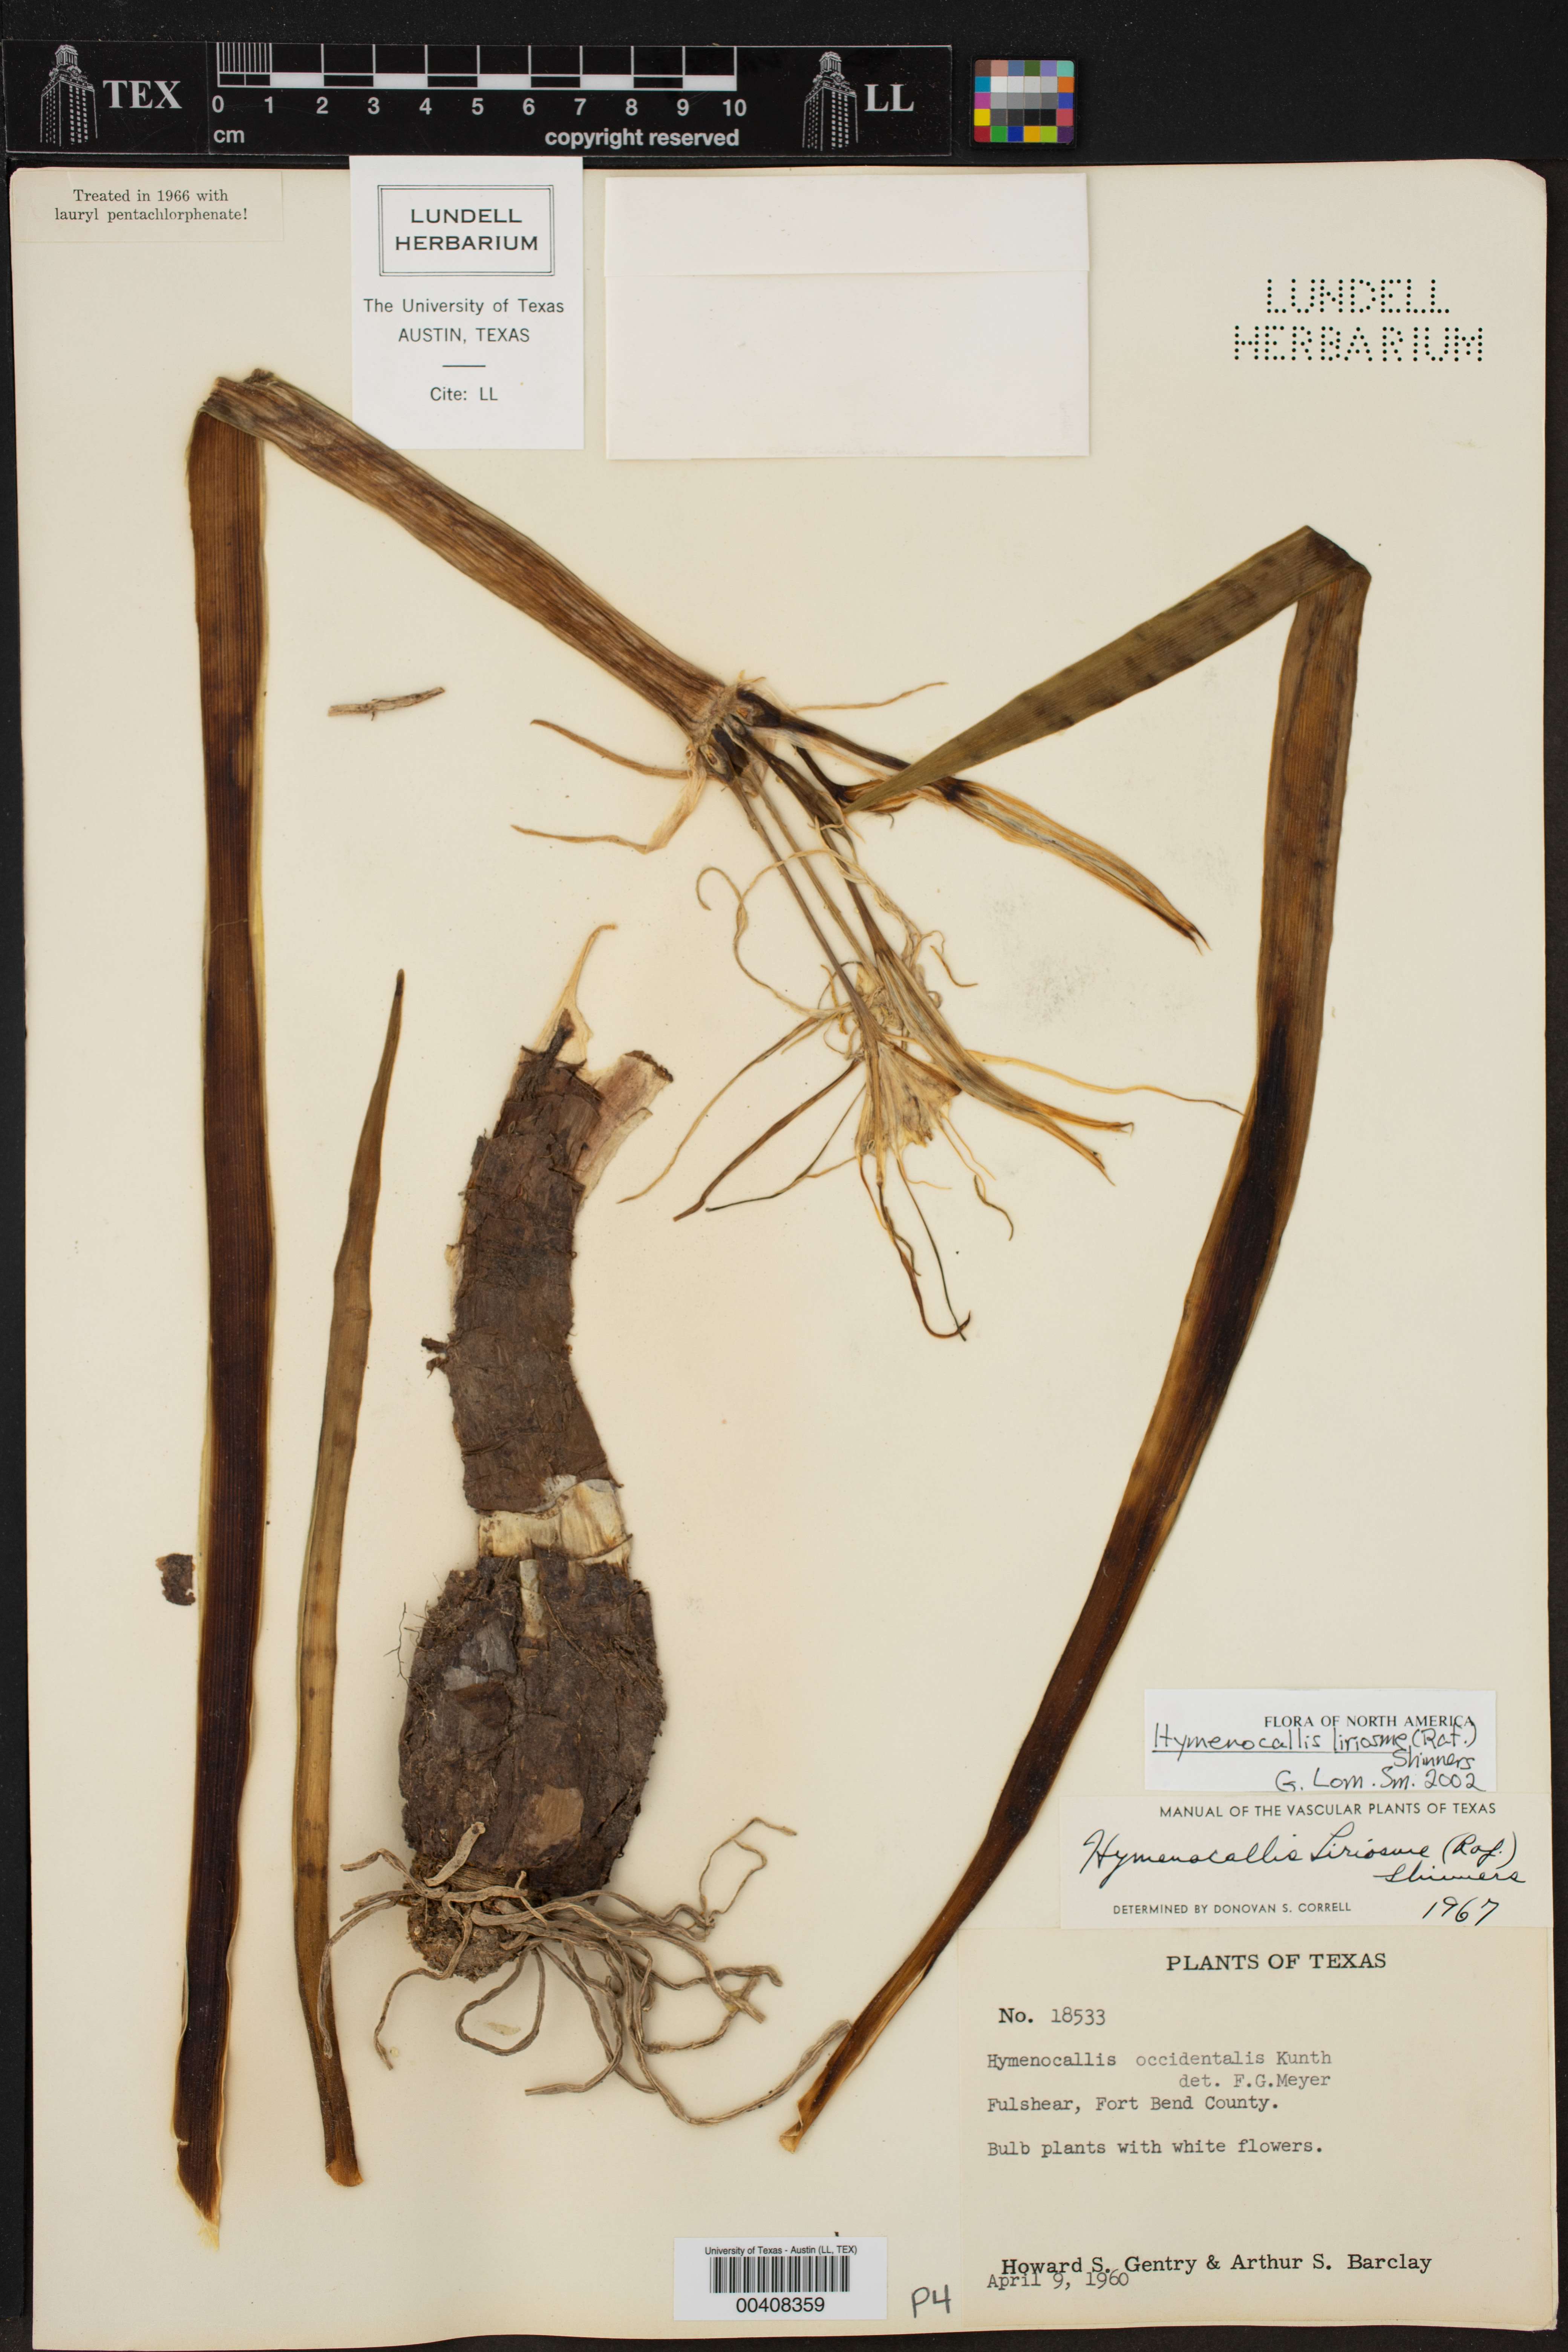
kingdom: Plantae
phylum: Tracheophyta
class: Liliopsida
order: Asparagales
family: Amaryllidaceae
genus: Hymenocallis
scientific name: Hymenocallis liriosme
